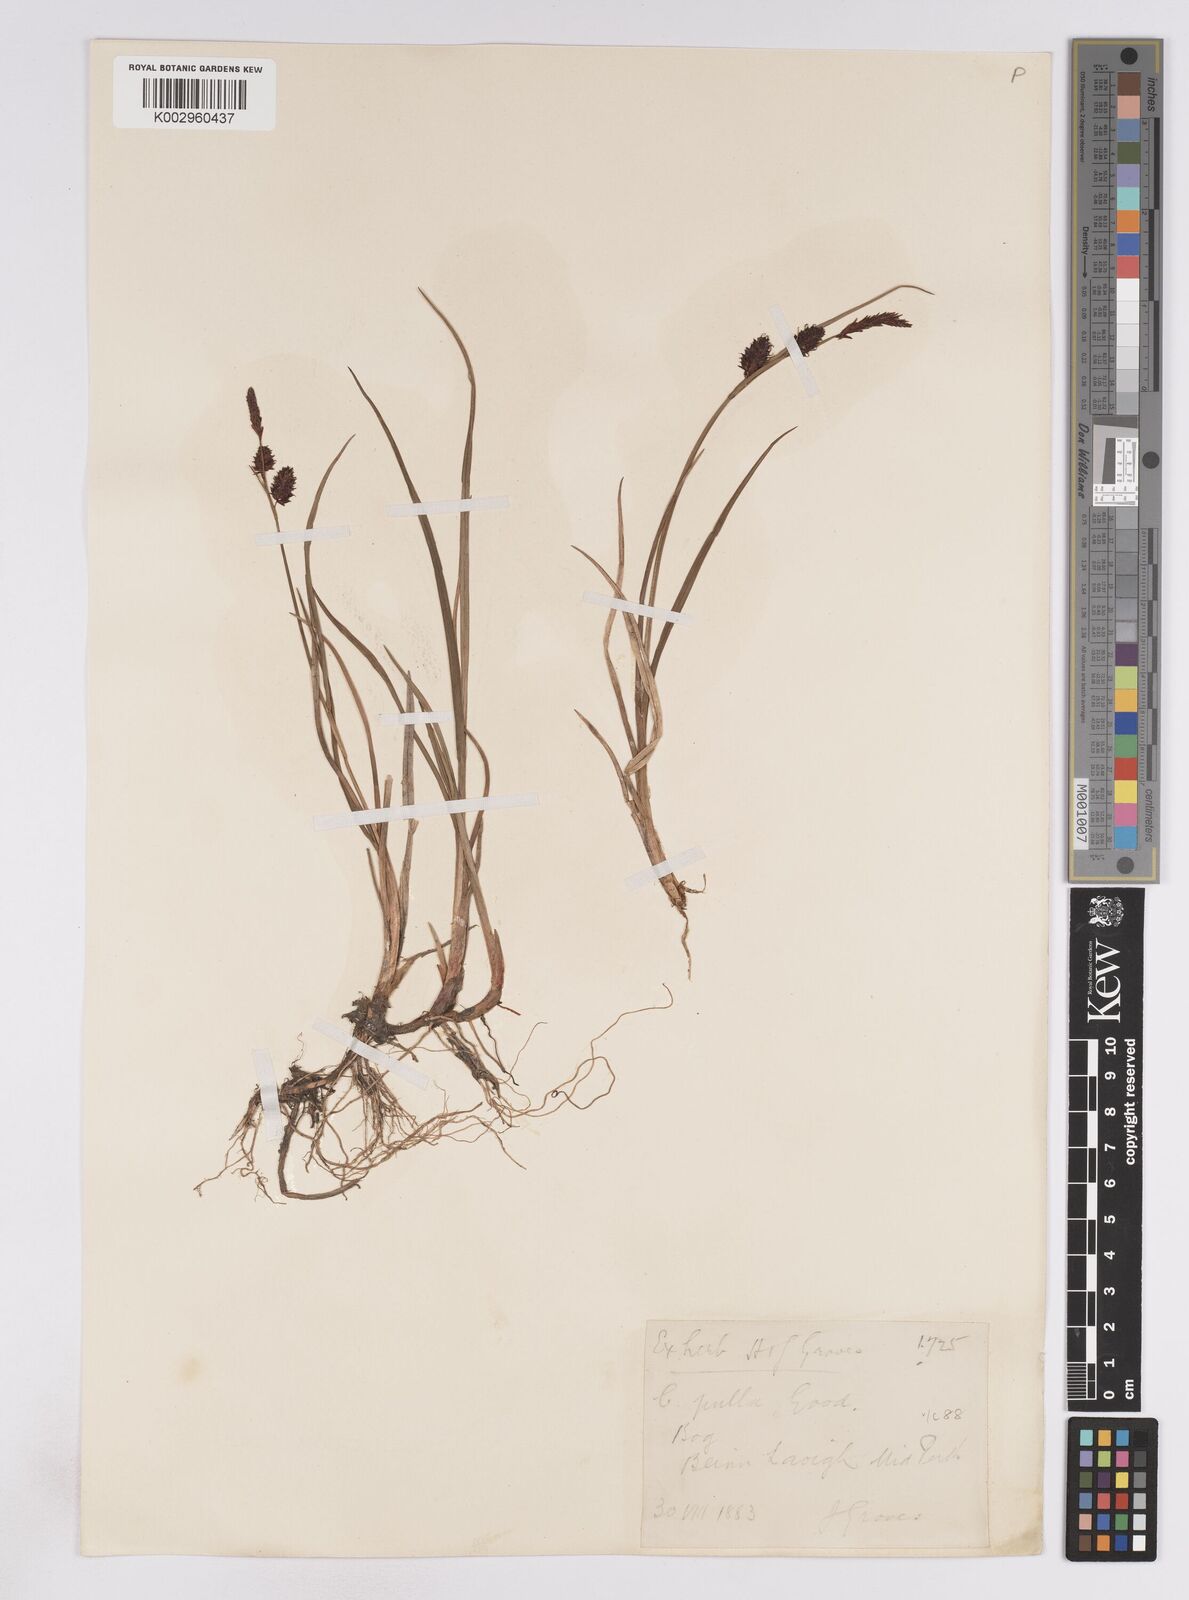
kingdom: Plantae
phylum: Tracheophyta
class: Liliopsida
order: Poales
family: Cyperaceae
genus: Carex
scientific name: Carex saxatilis
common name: Russet sedge
